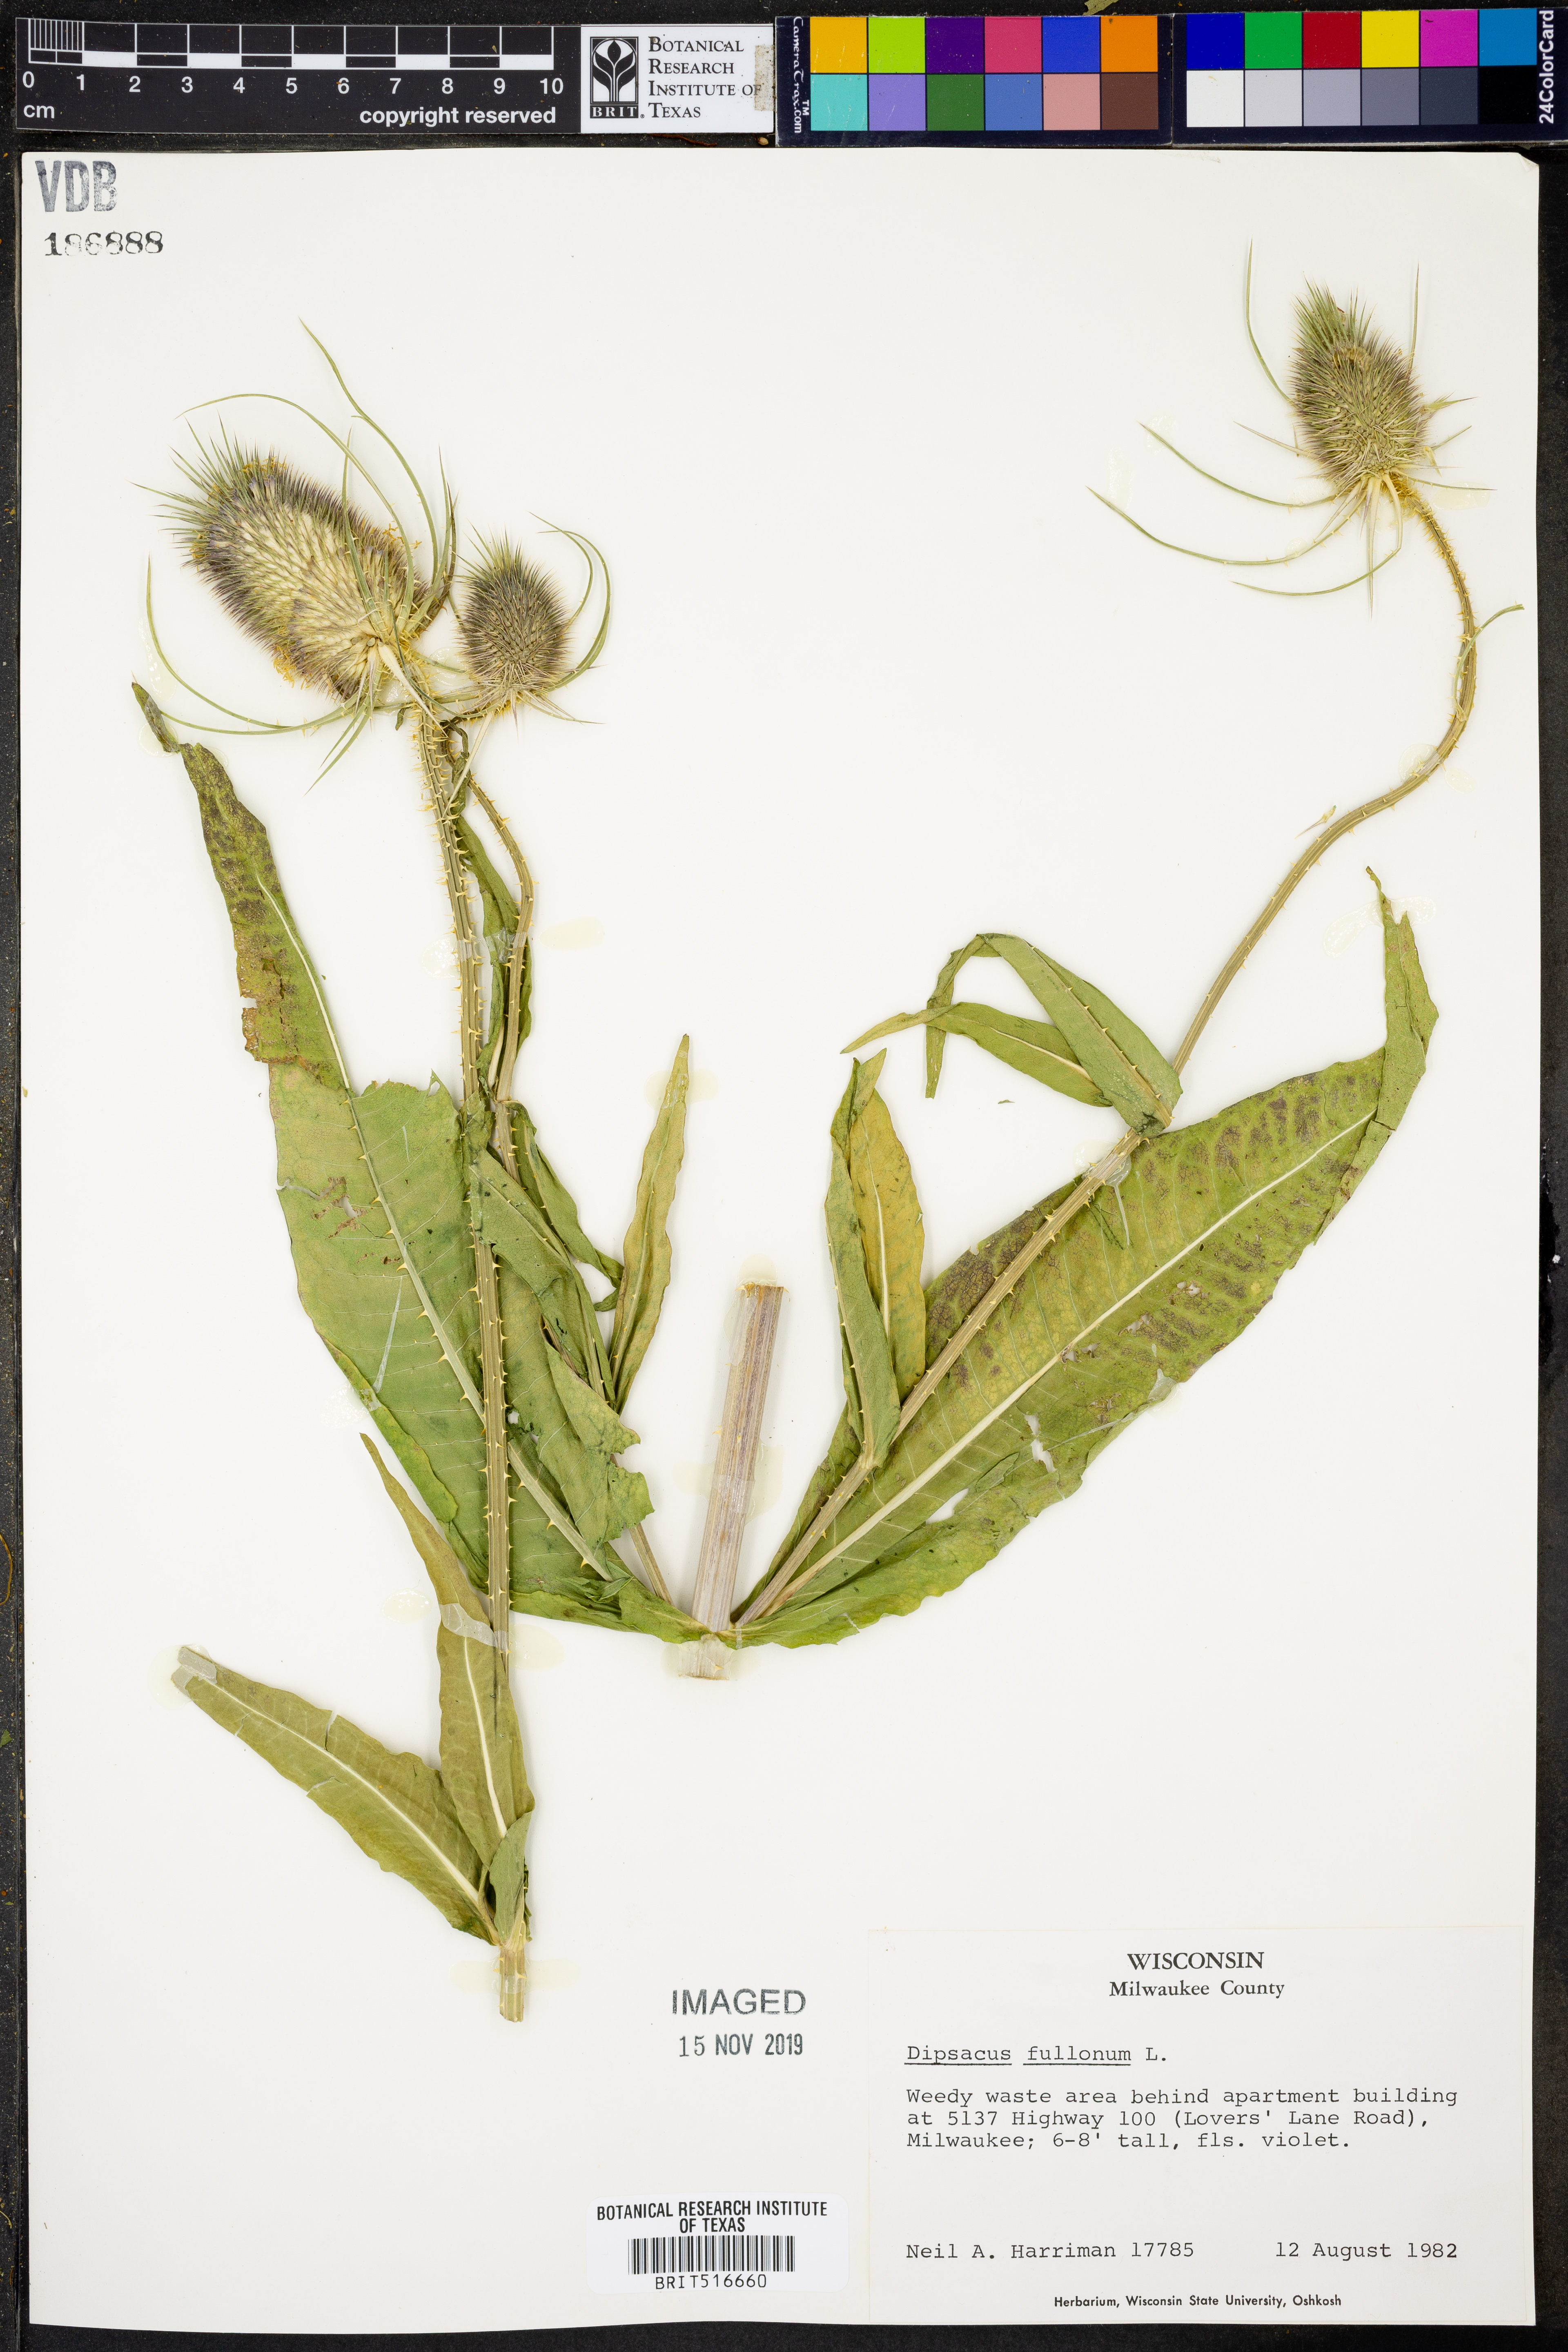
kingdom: Plantae
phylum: Tracheophyta
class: Magnoliopsida
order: Dipsacales
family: Caprifoliaceae
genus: Dipsacus
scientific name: Dipsacus fullonum
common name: Teasel
